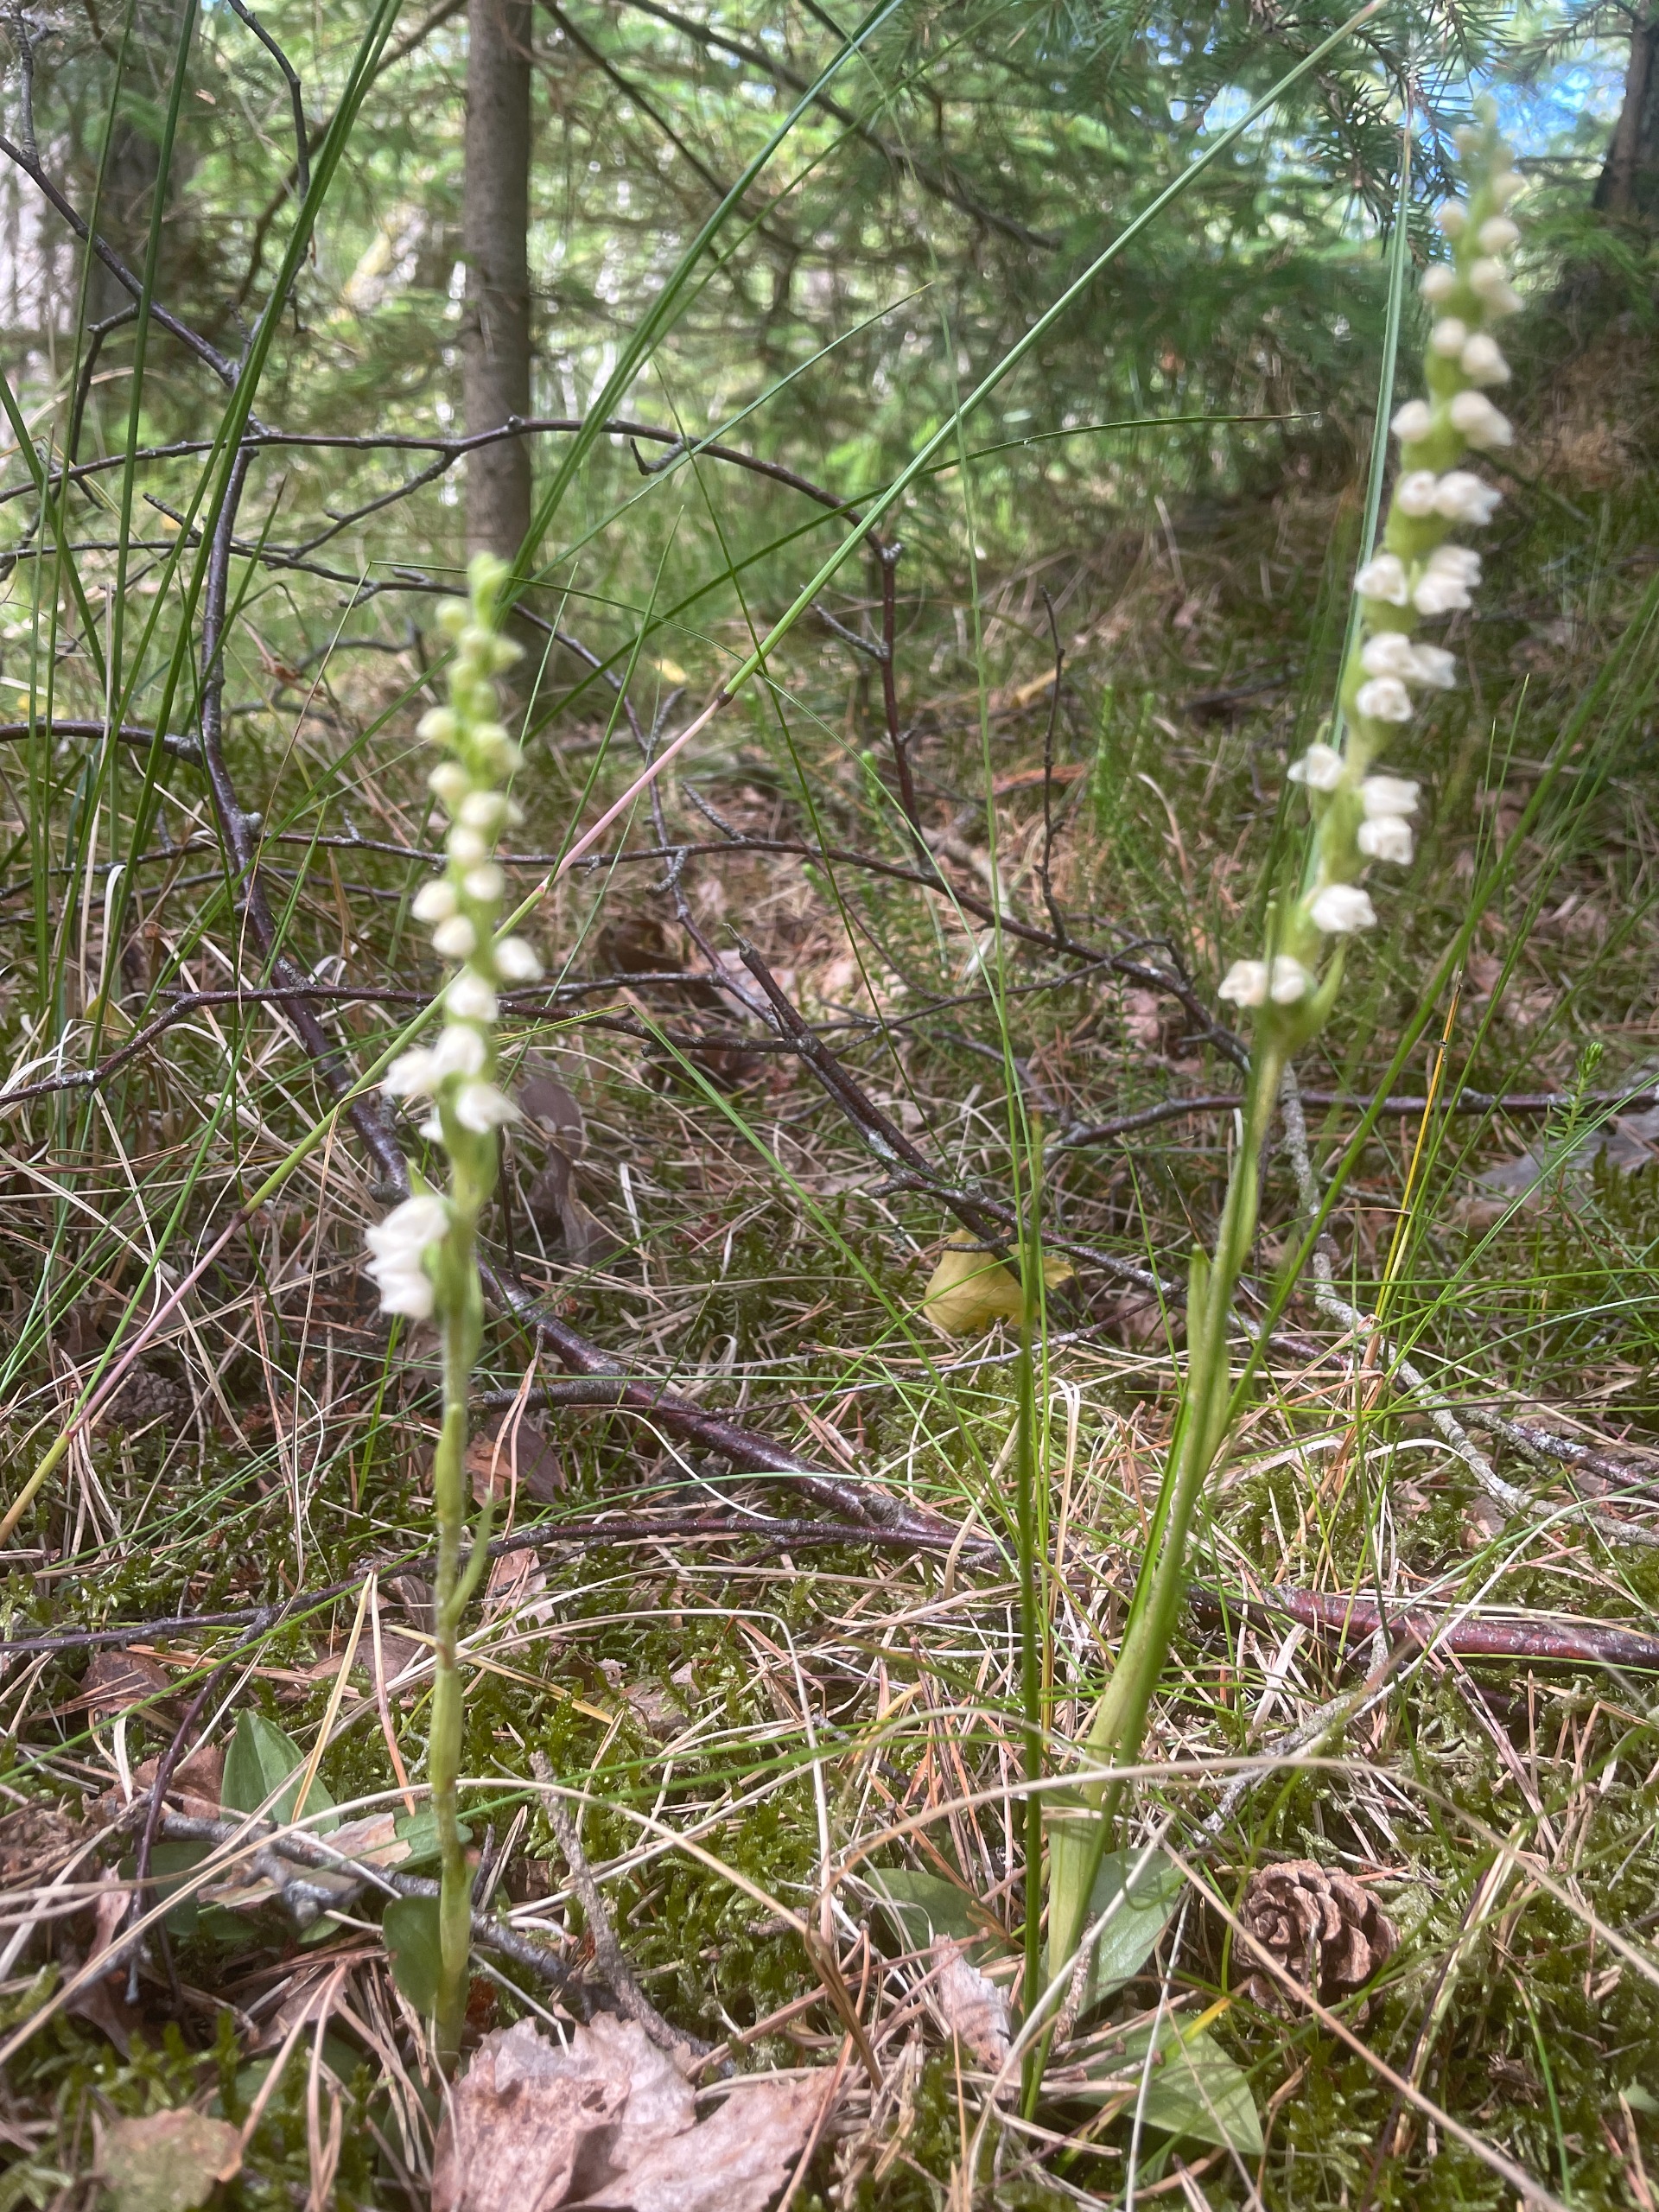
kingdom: Plantae
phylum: Tracheophyta
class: Liliopsida
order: Asparagales
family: Orchidaceae
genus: Goodyera
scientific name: Goodyera repens
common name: Knærod
